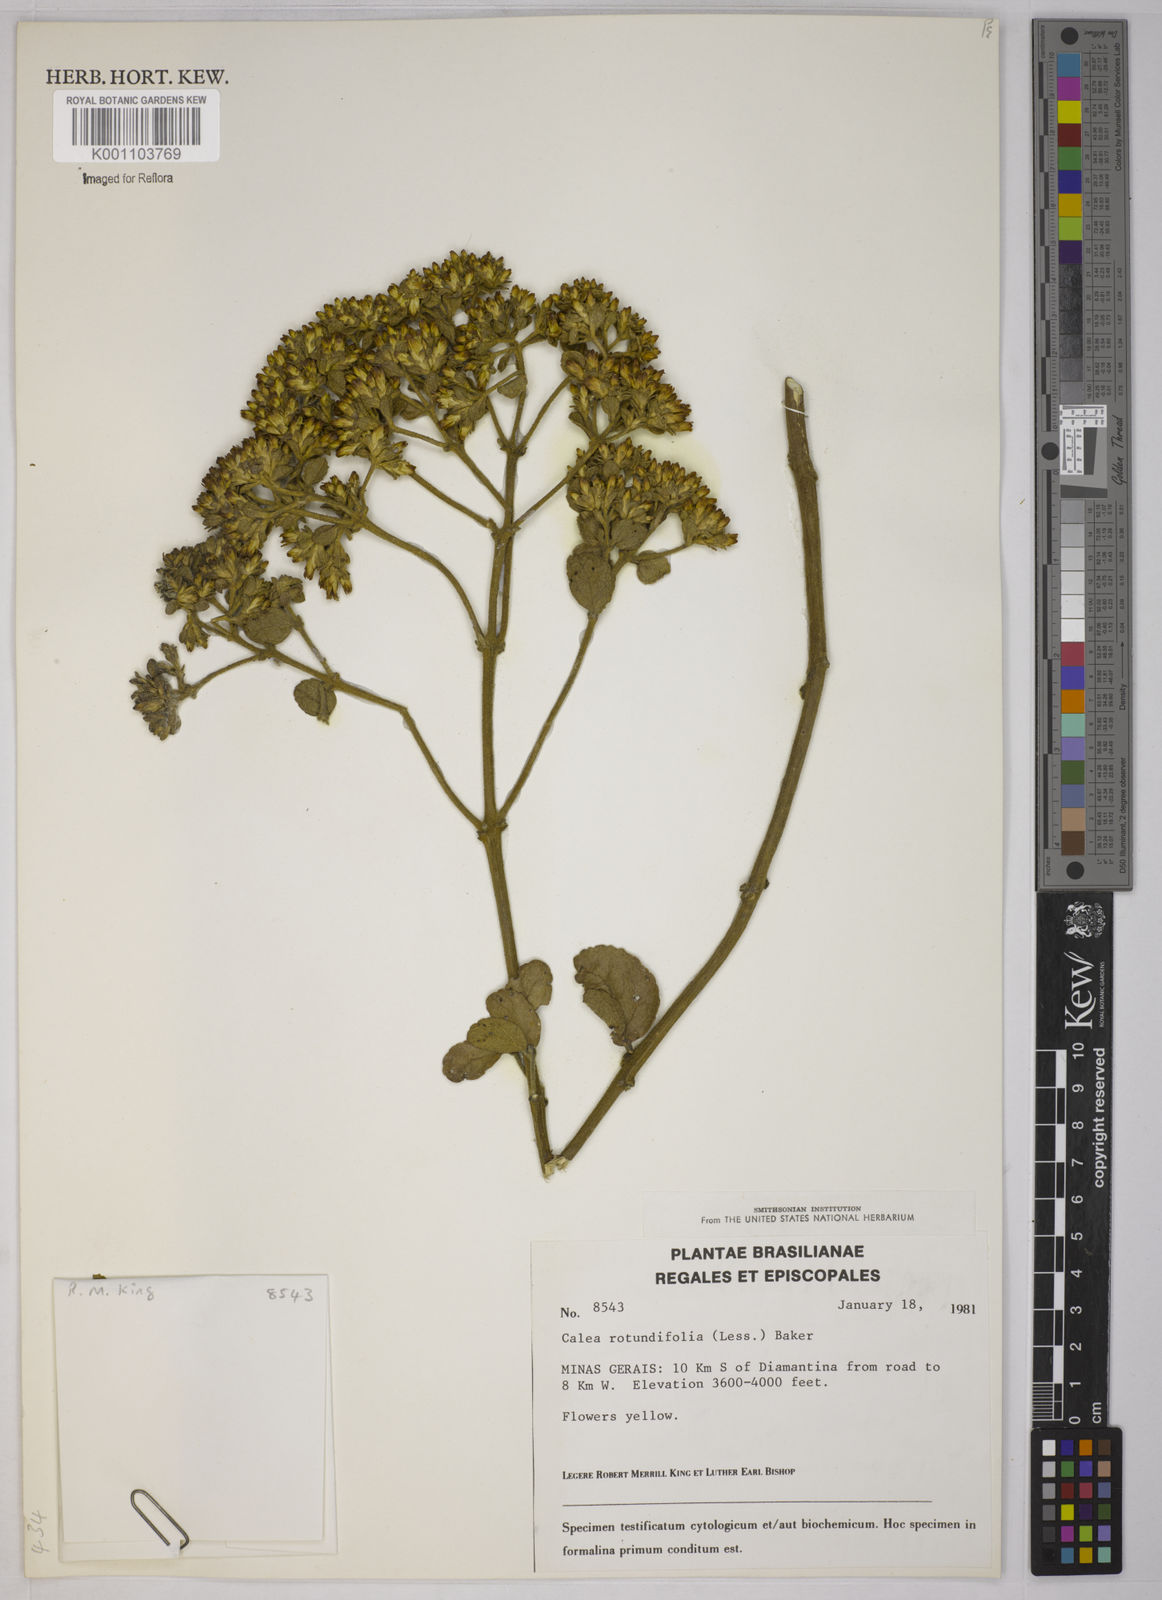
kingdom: Plantae
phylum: Tracheophyta
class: Magnoliopsida
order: Asterales
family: Asteraceae
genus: Calea
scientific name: Calea rotundifolia
